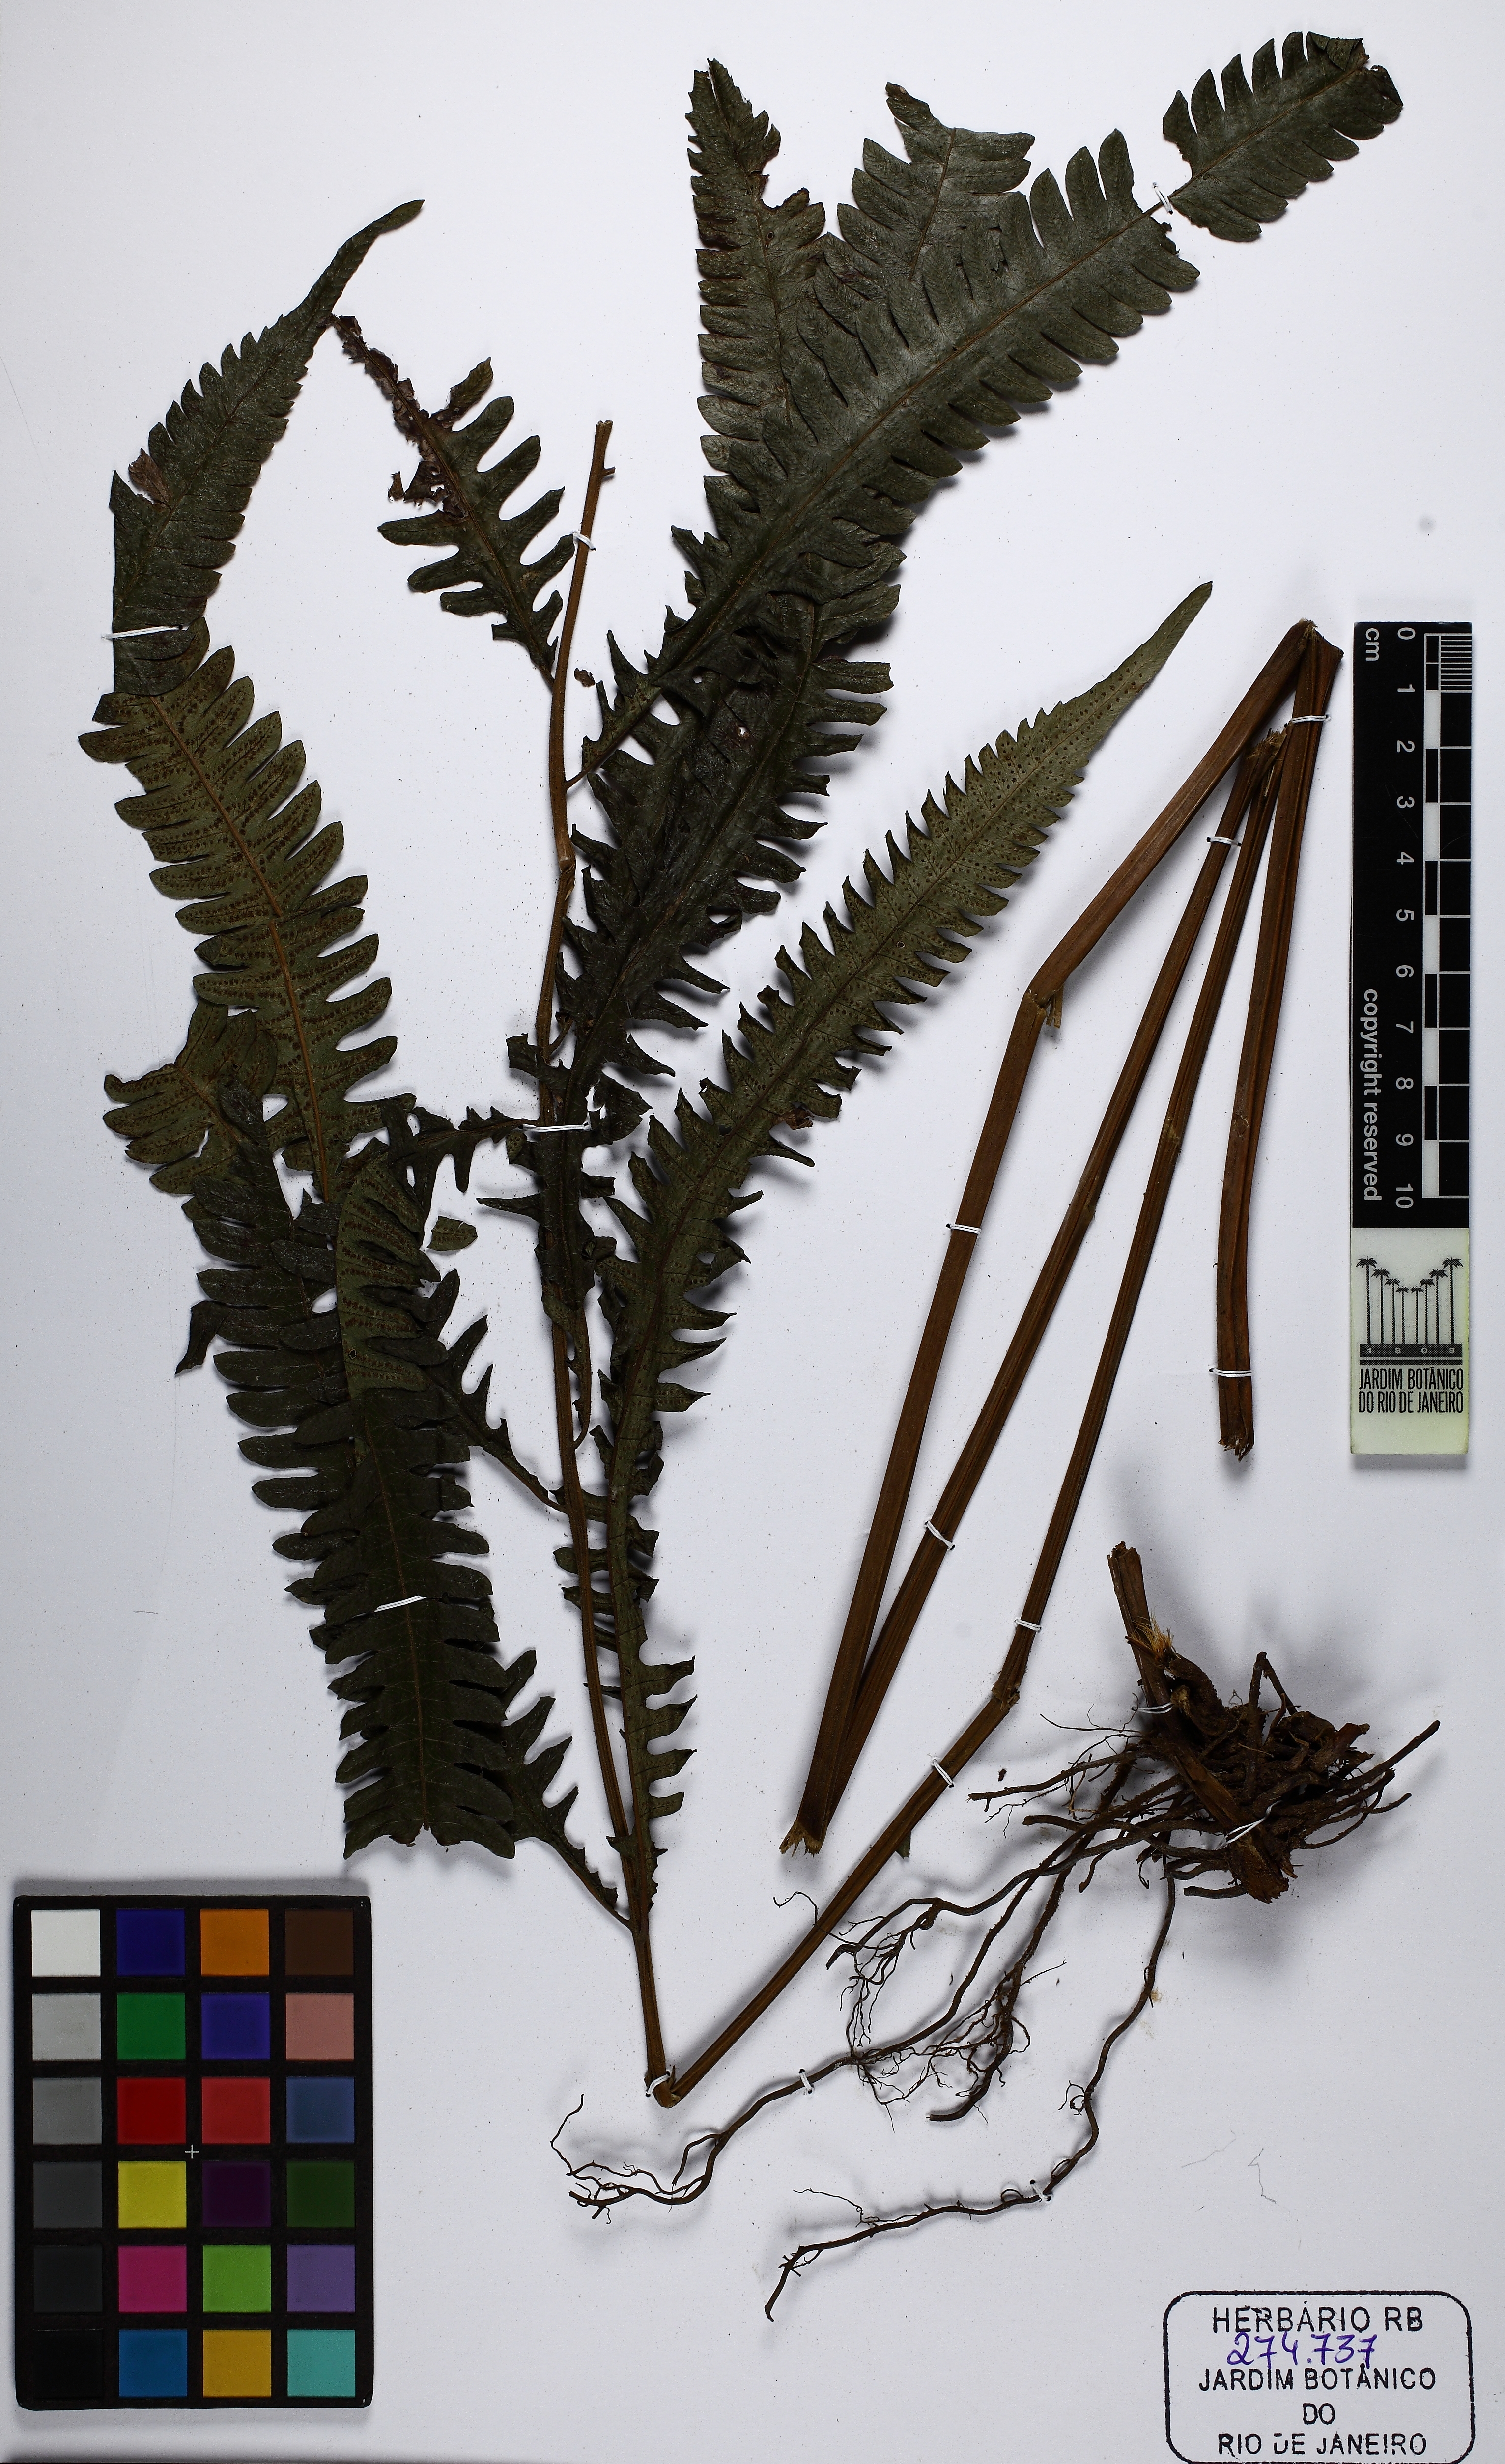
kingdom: Plantae
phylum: Tracheophyta
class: Polypodiopsida
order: Polypodiales
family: Thelypteridaceae
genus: Goniopteris
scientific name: Goniopteris
